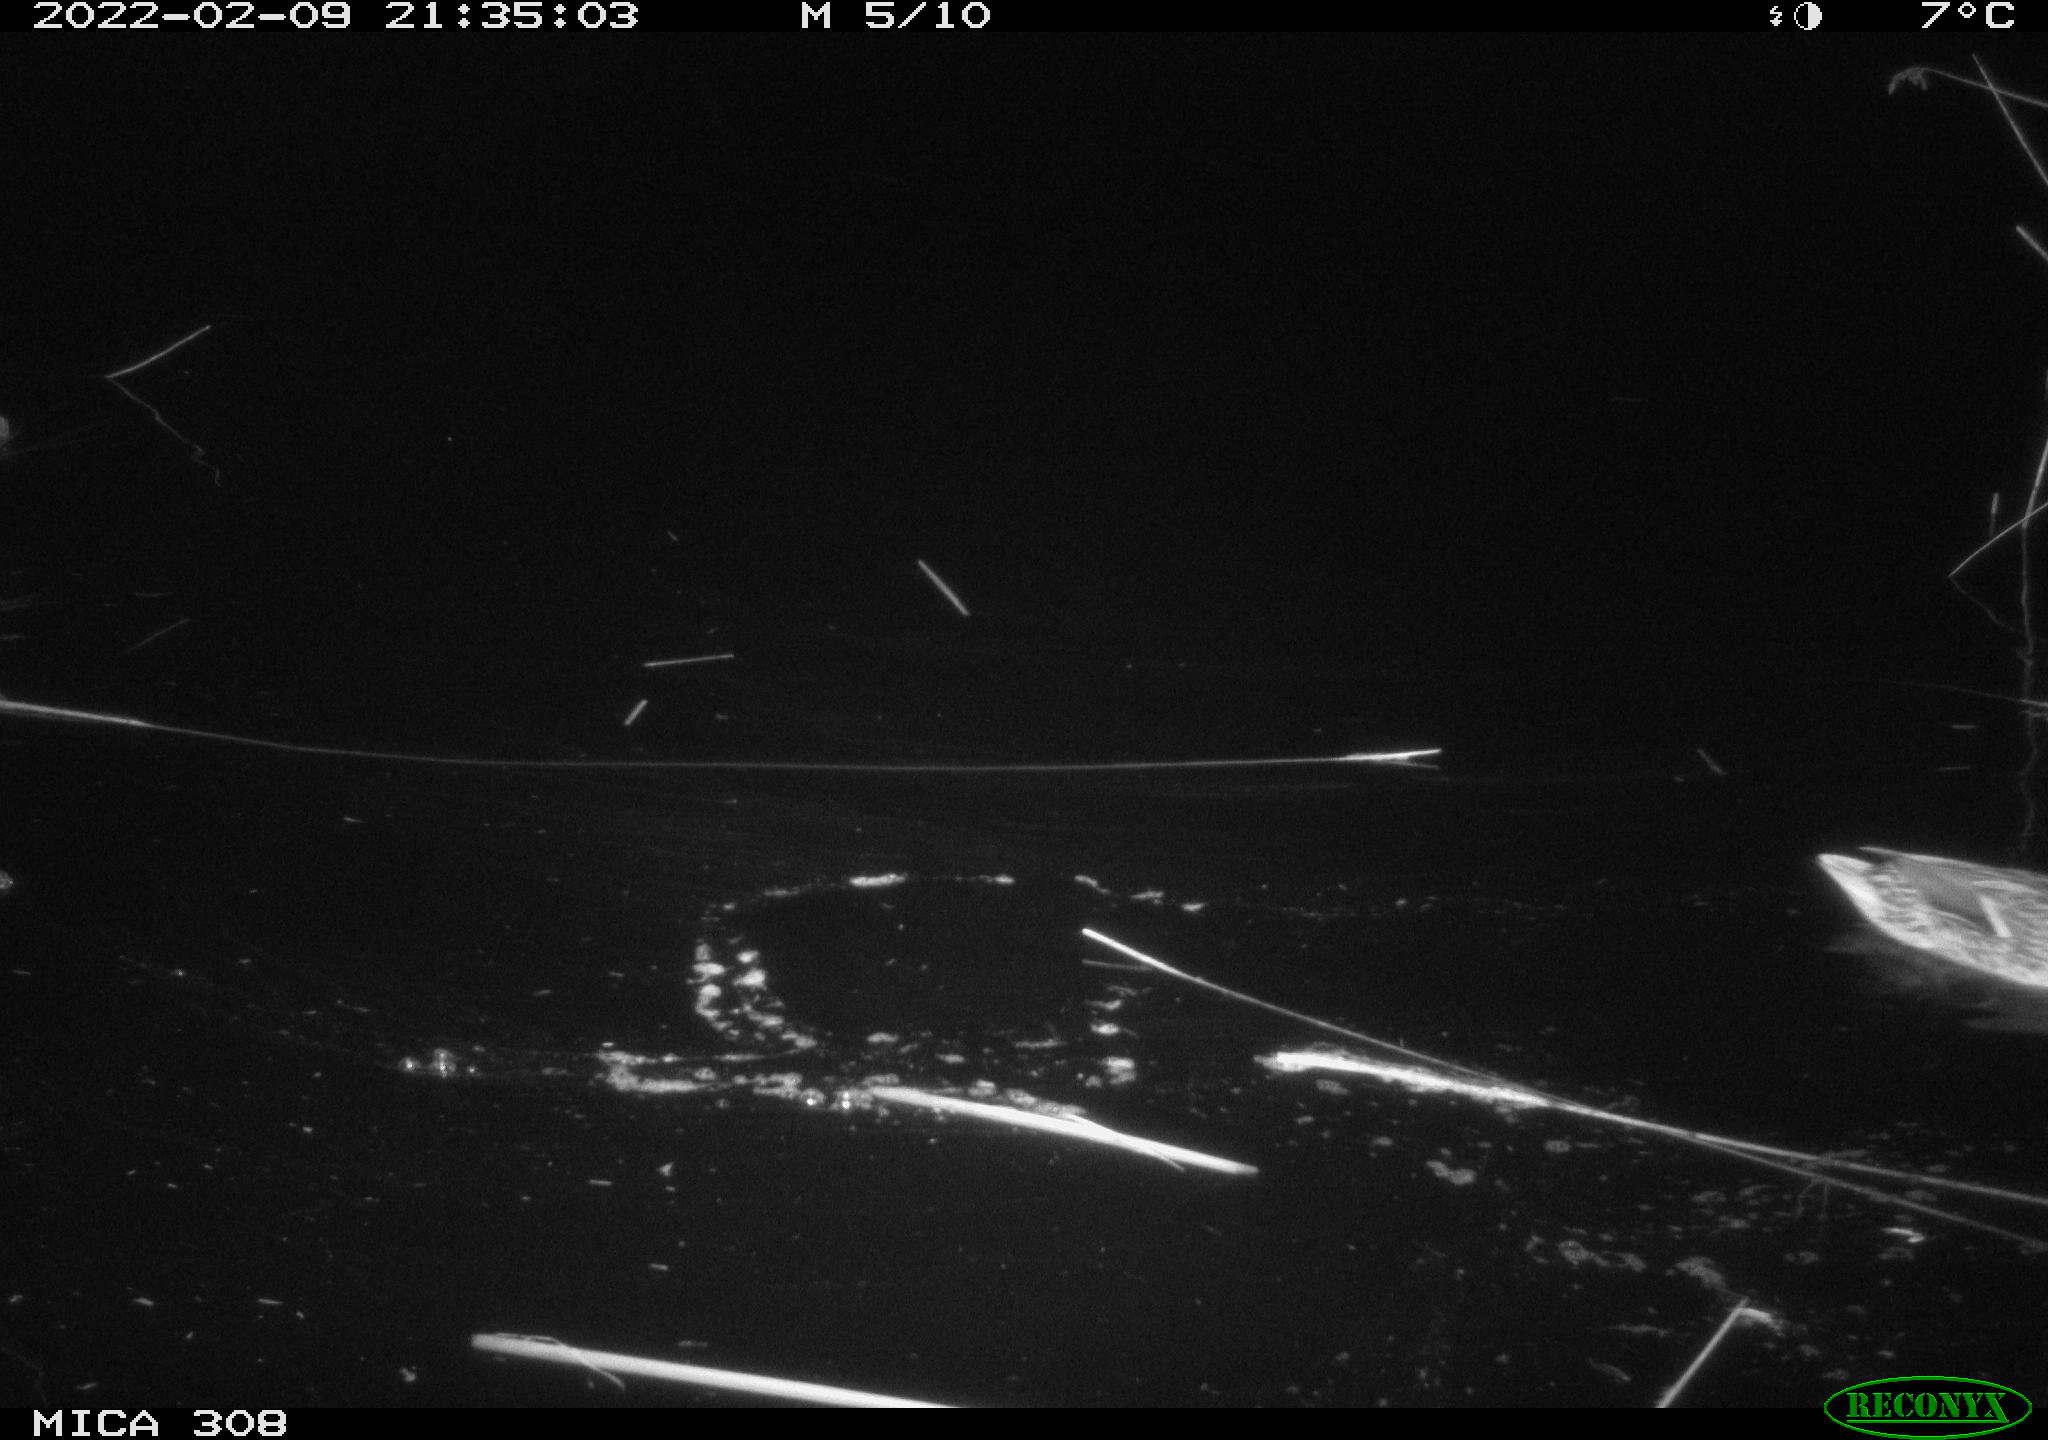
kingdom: Animalia
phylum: Chordata
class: Aves
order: Anseriformes
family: Anatidae
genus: Anas
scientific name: Anas platyrhynchos
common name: Mallard
